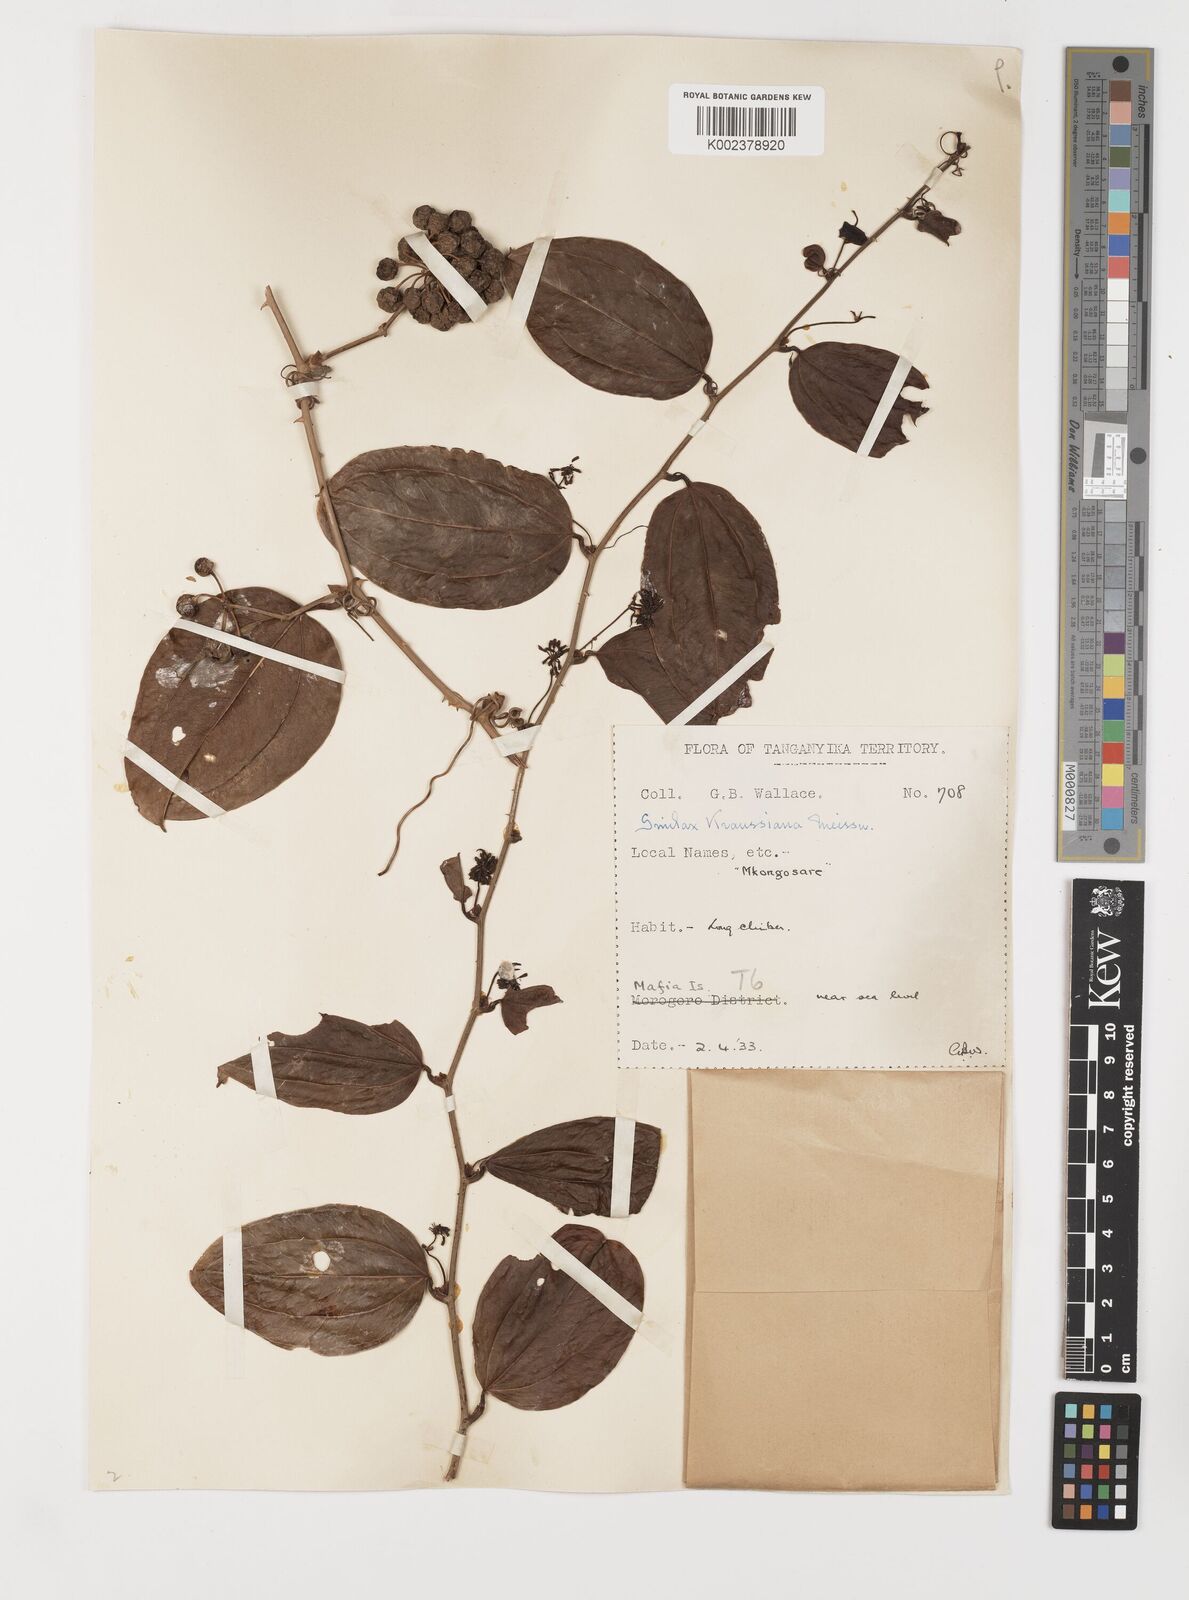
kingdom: Plantae
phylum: Tracheophyta
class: Liliopsida
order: Liliales
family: Smilacaceae
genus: Smilax
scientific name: Smilax anceps
